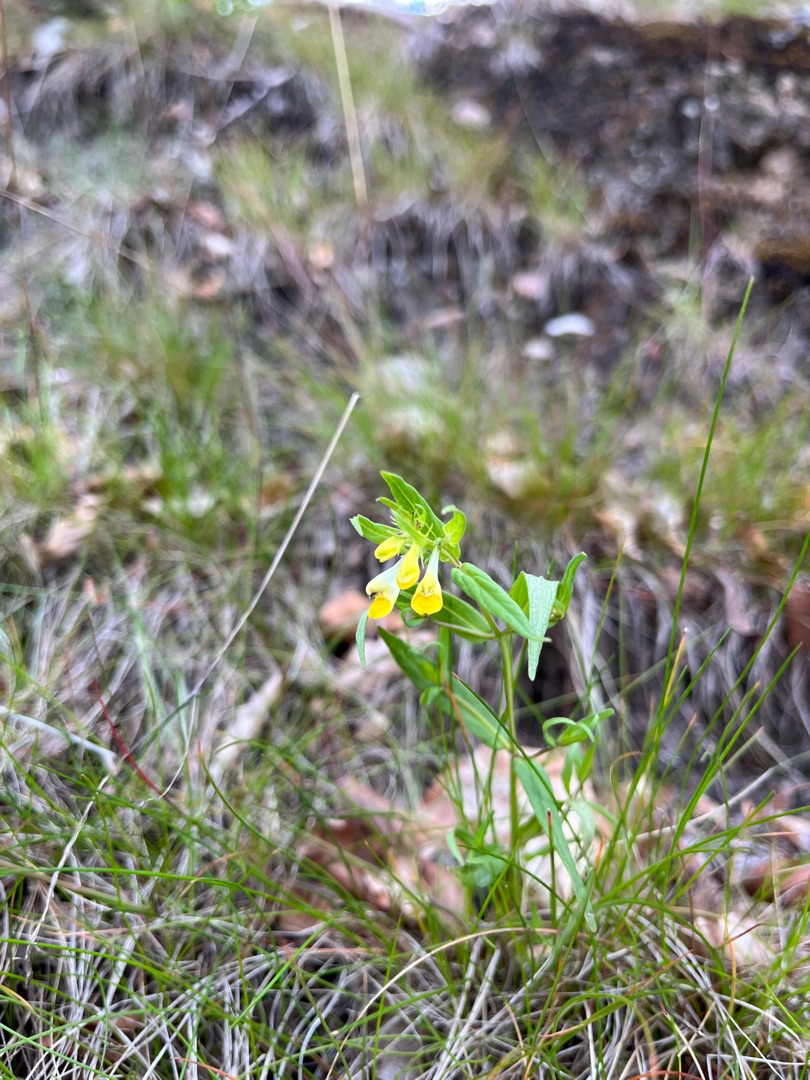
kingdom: Plantae
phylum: Tracheophyta
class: Magnoliopsida
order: Lamiales
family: Orobanchaceae
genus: Melampyrum
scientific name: Melampyrum pratense
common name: Almindelig kohvede
